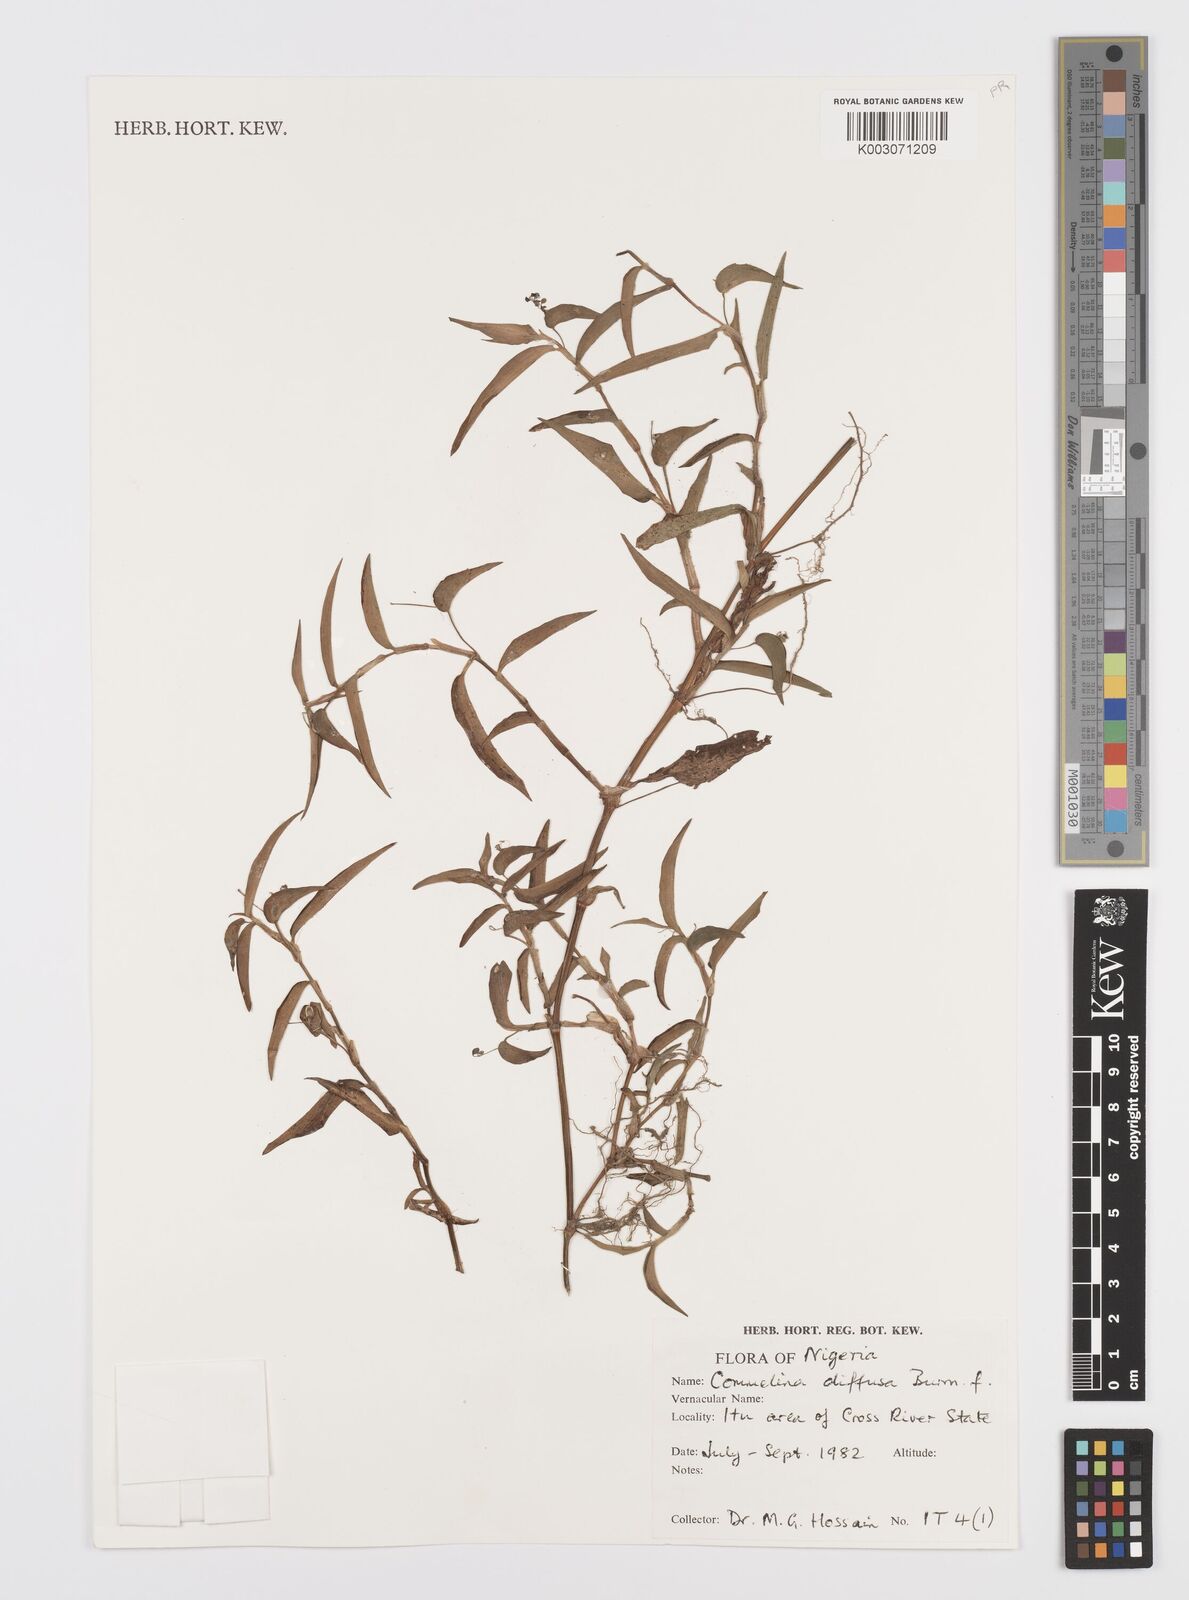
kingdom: Plantae
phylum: Tracheophyta
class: Liliopsida
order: Commelinales
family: Commelinaceae
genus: Commelina
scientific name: Commelina diffusa
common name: Climbing dayflower
